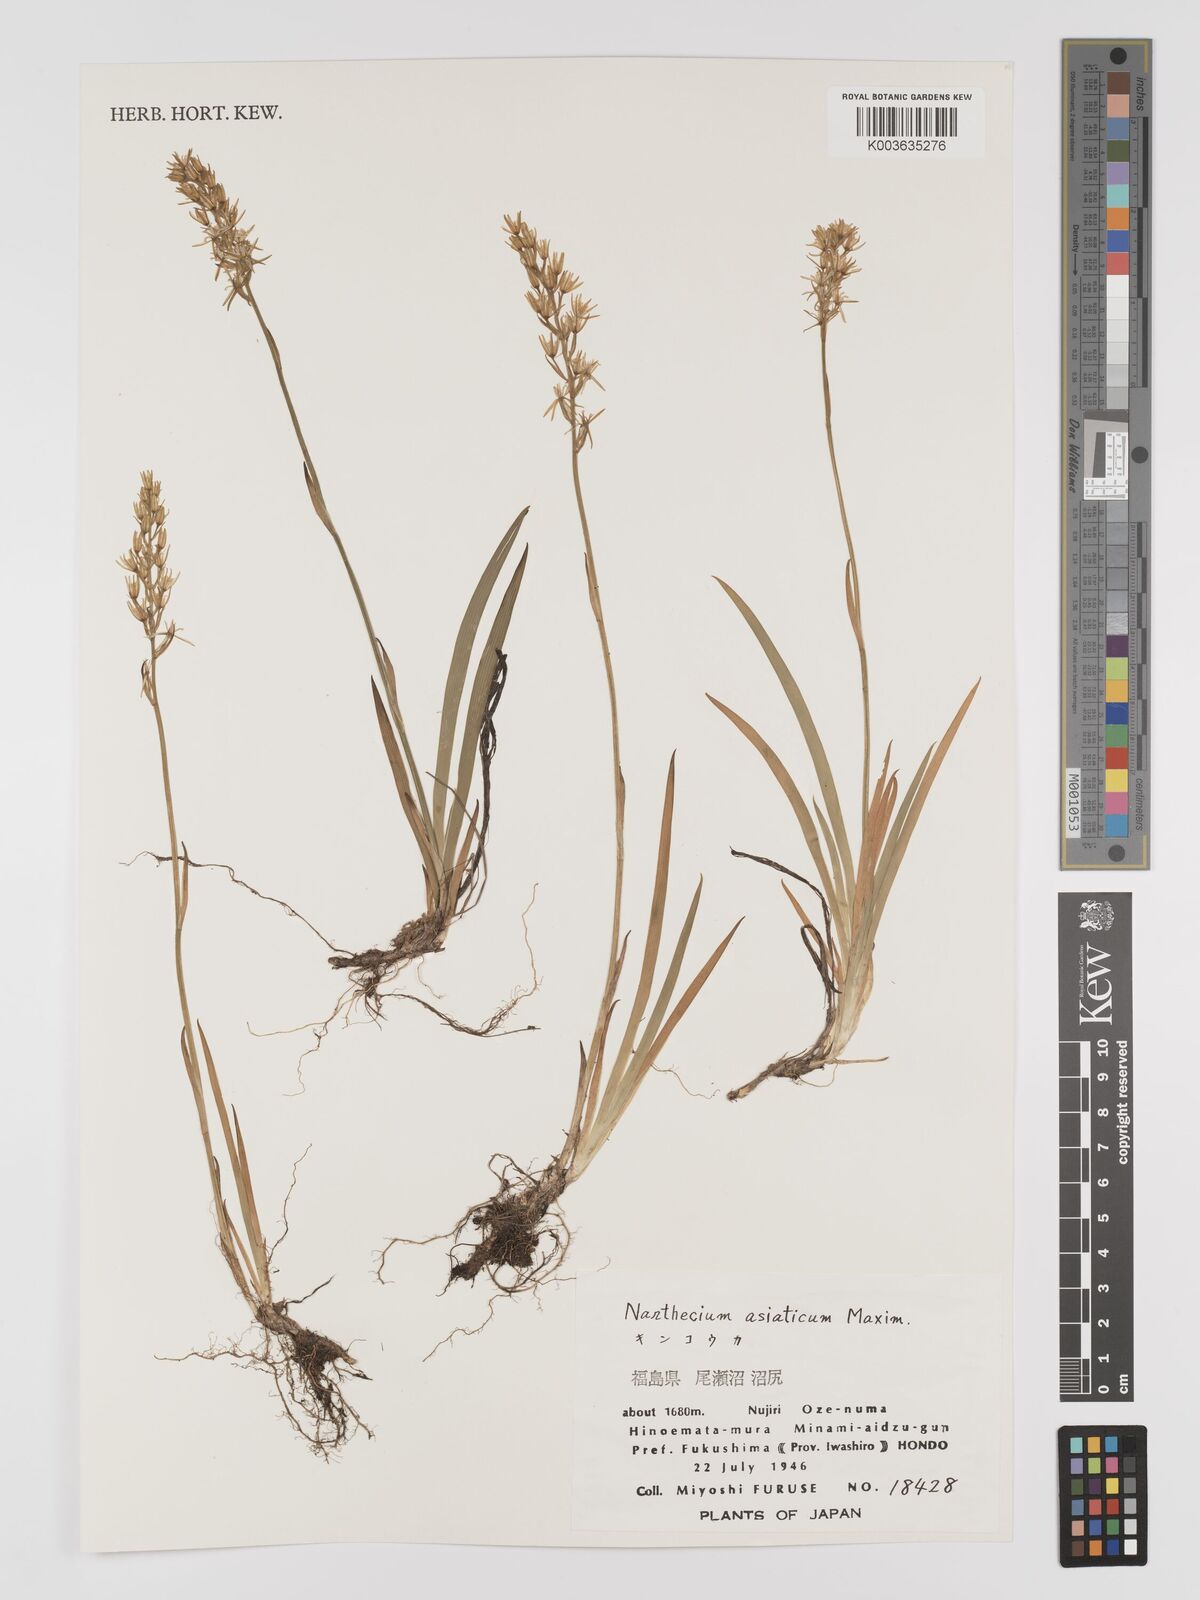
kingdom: Plantae
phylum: Tracheophyta
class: Liliopsida
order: Dioscoreales
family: Nartheciaceae
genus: Narthecium
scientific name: Narthecium asiaticum
